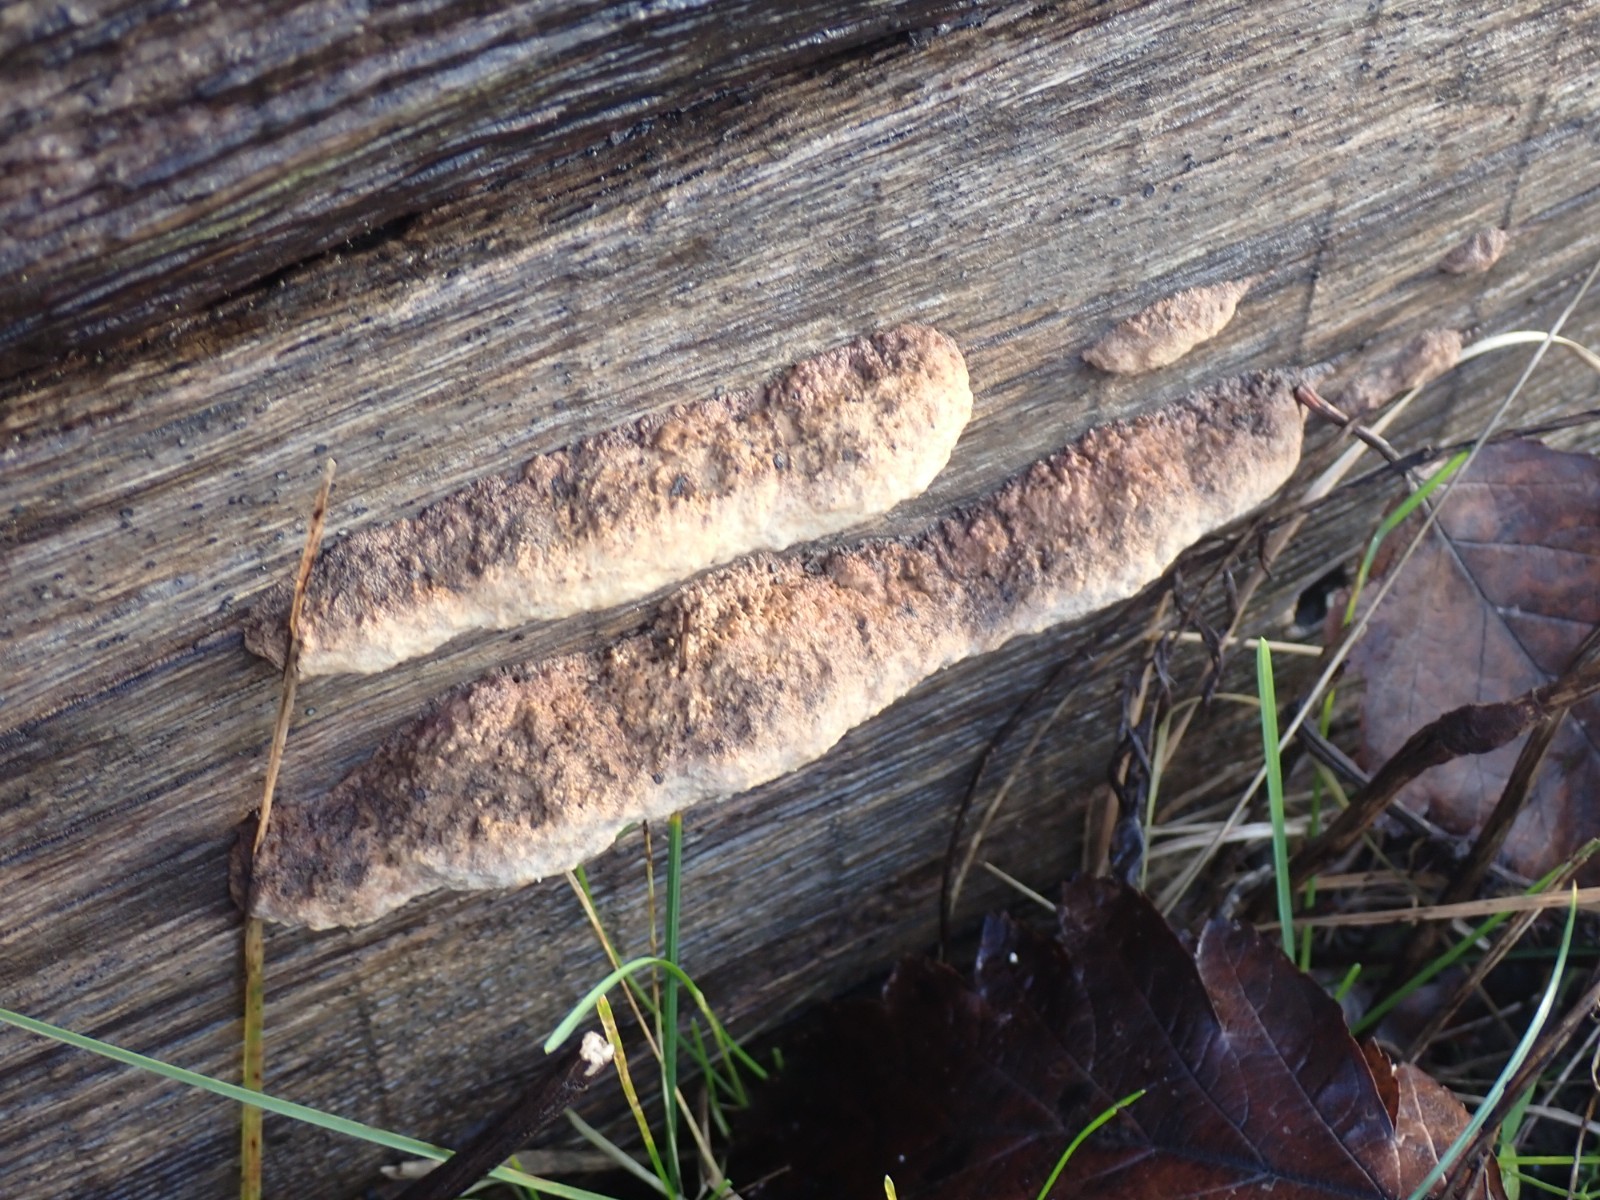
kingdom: Fungi
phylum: Basidiomycota
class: Agaricomycetes
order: Polyporales
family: Fomitopsidaceae
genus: Daedalea
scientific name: Daedalea quercina
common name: ege-labyrintsvamp
